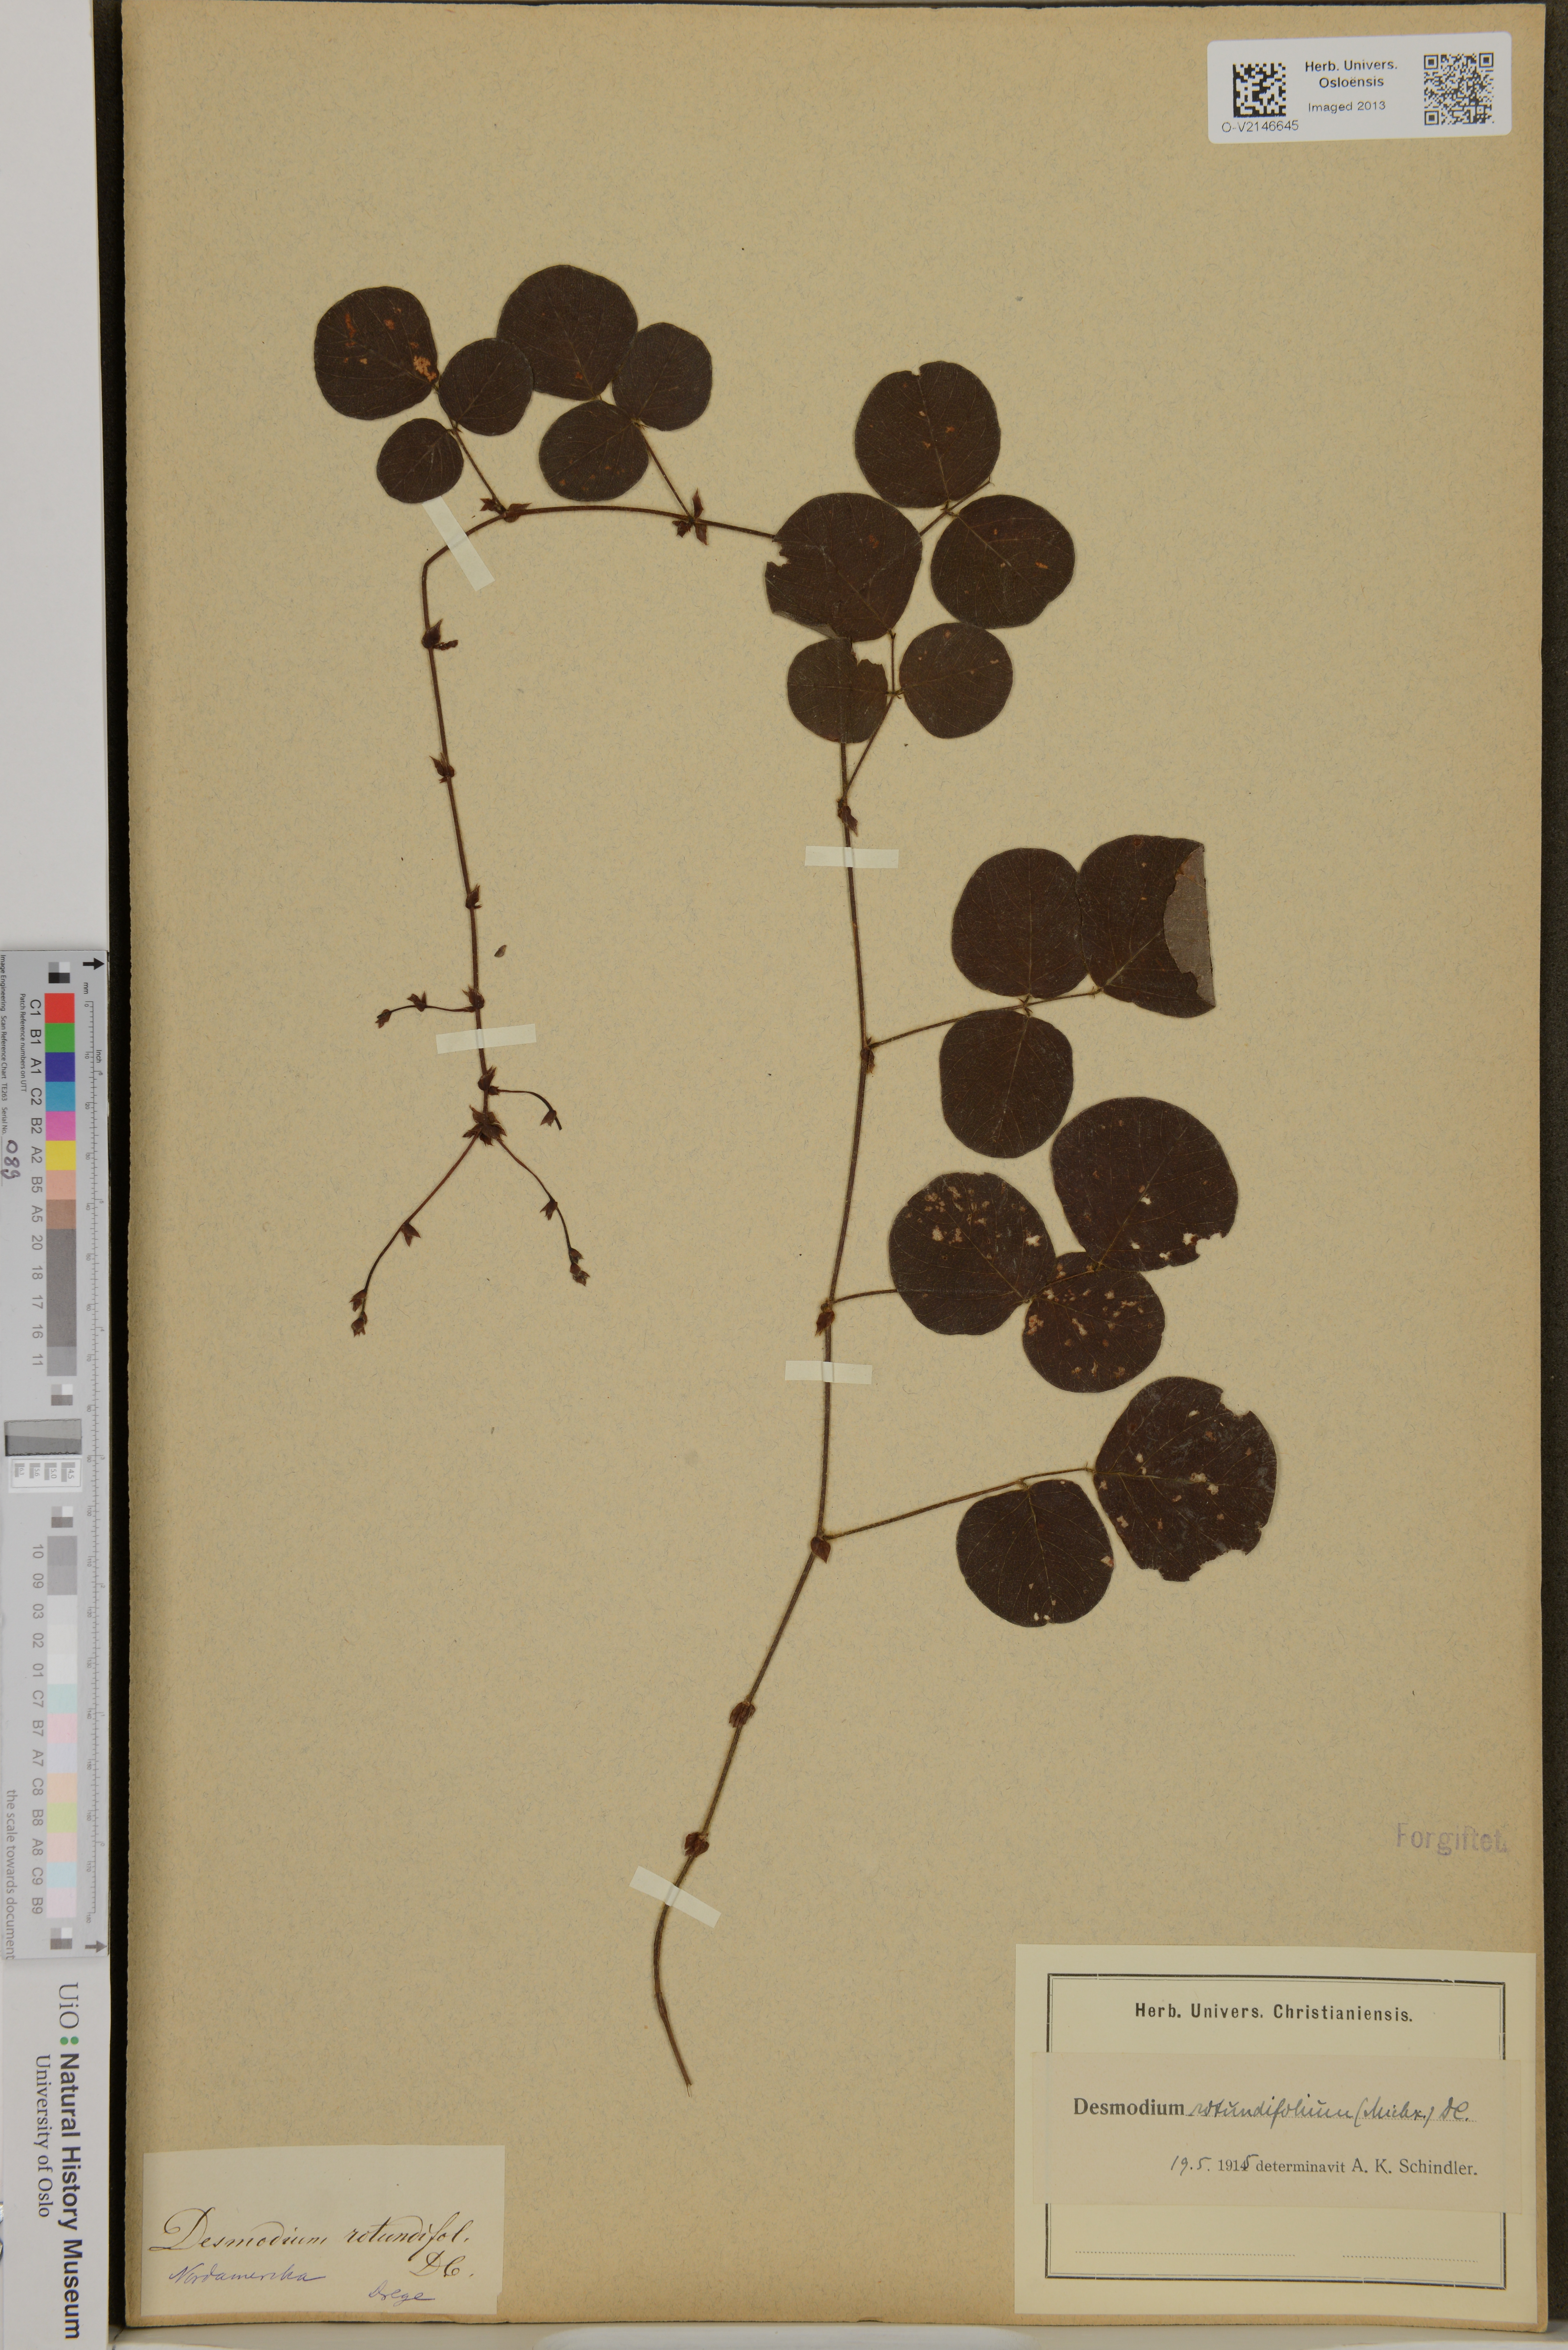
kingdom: Plantae
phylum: Tracheophyta
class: Magnoliopsida
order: Fabales
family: Fabaceae
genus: Desmodium
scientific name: Desmodium rotundifolium
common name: Dollarleaf
